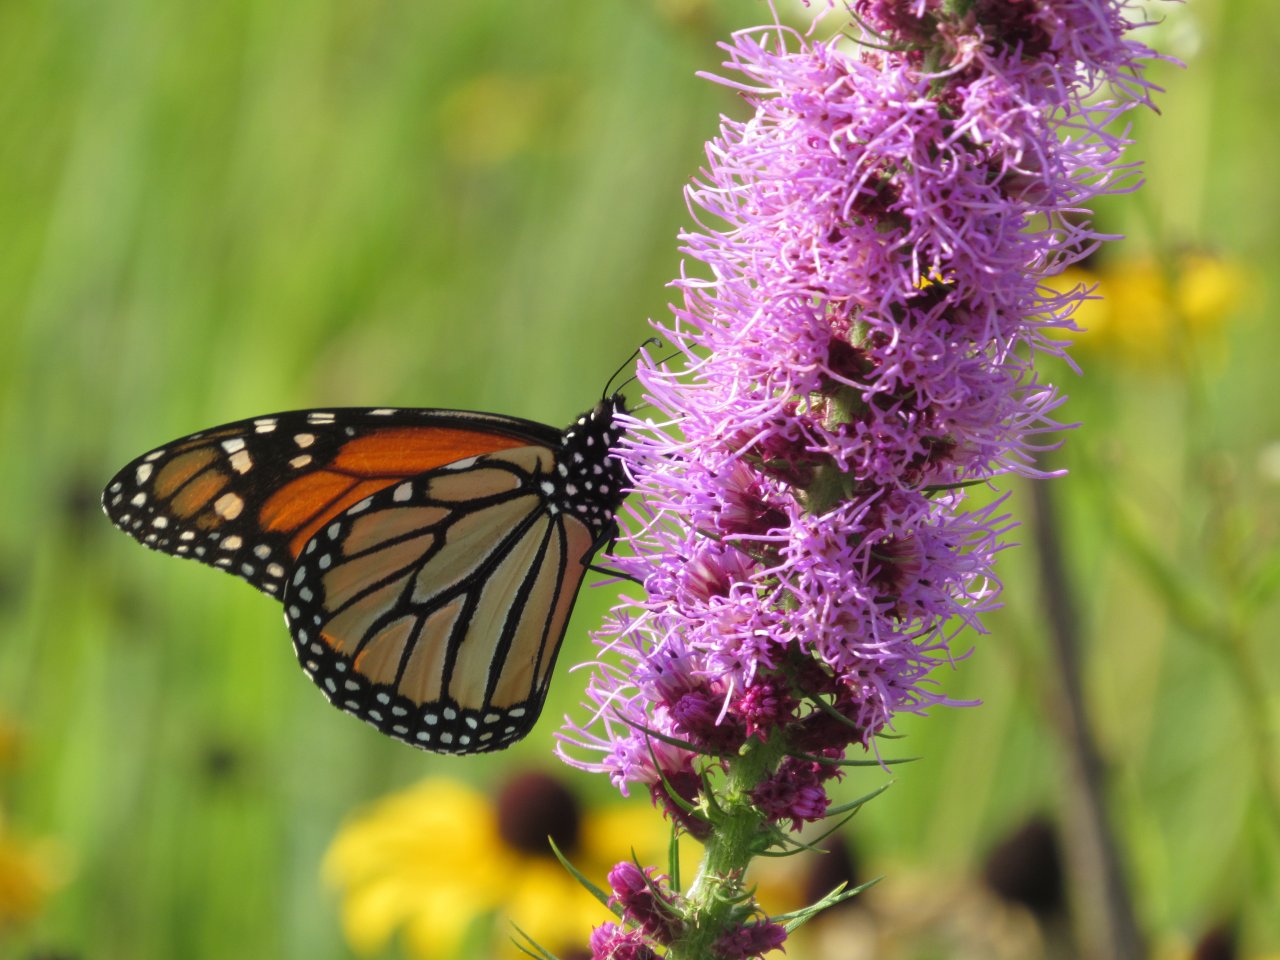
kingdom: Animalia
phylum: Arthropoda
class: Insecta
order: Lepidoptera
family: Nymphalidae
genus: Danaus
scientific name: Danaus plexippus
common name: Monarch
